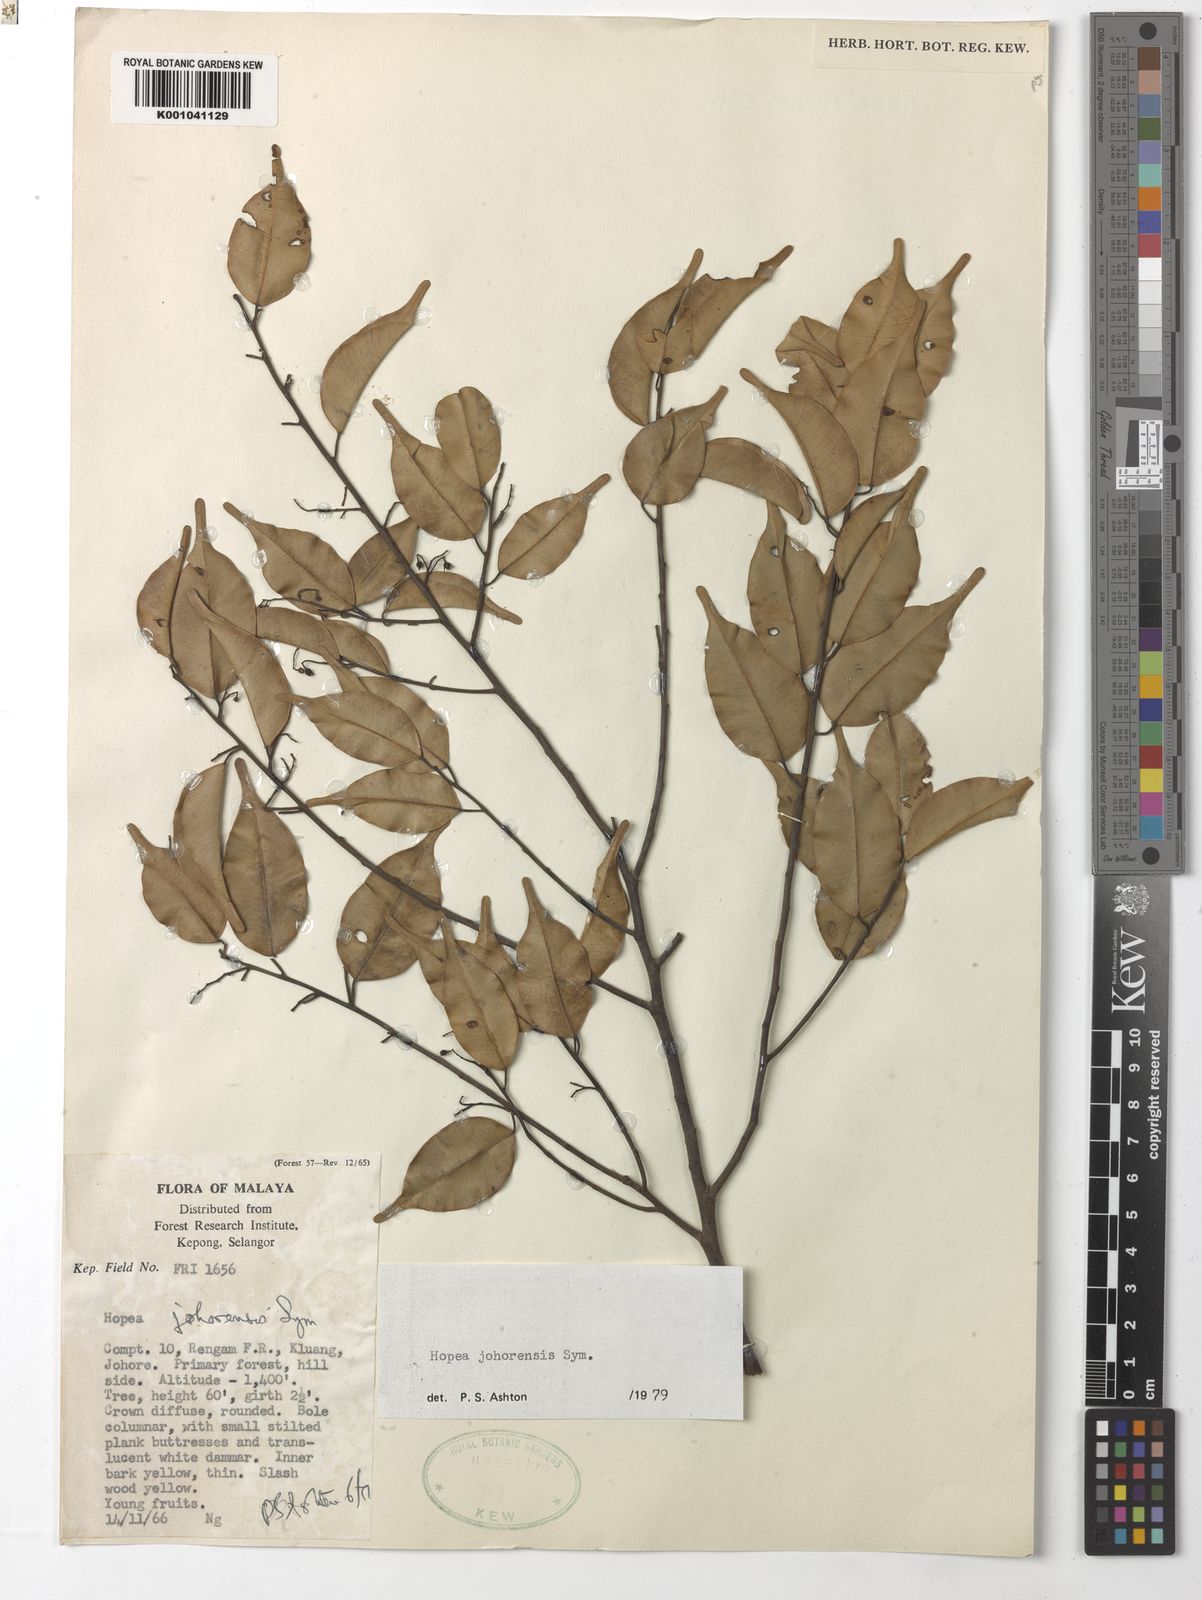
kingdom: Plantae
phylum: Tracheophyta
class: Magnoliopsida
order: Malvales
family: Dipterocarpaceae
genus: Hopea
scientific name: Hopea johorensis
